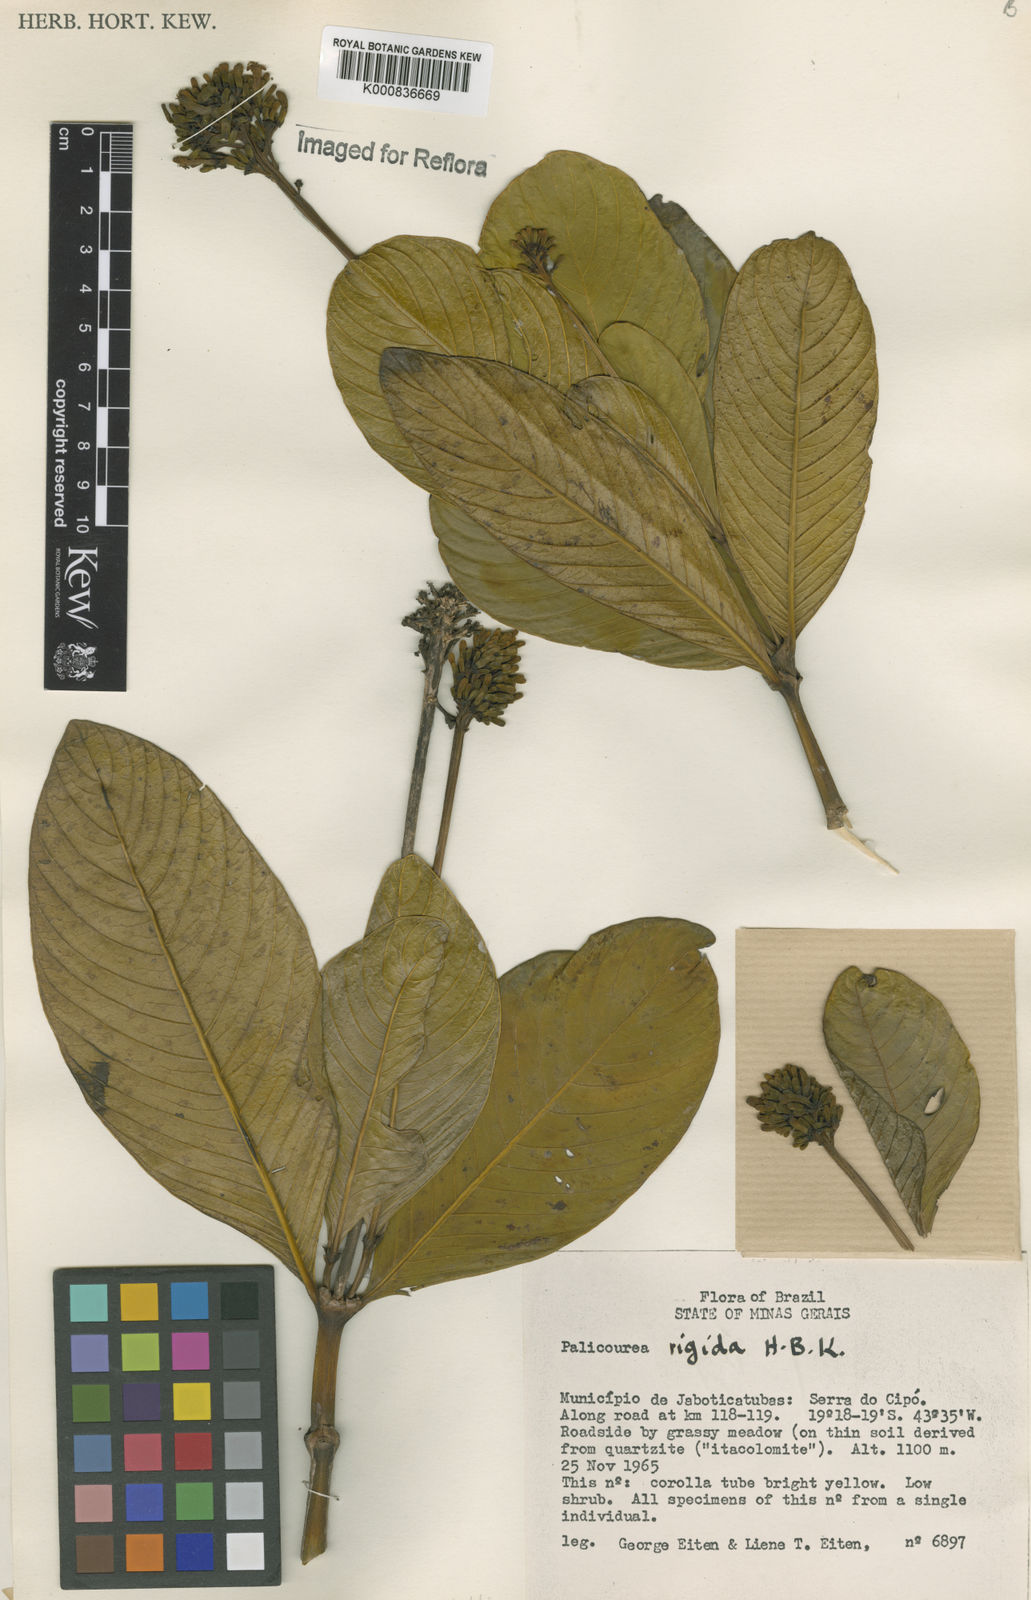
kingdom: Plantae
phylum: Tracheophyta
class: Magnoliopsida
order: Gentianales
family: Rubiaceae
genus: Palicourea
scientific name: Palicourea rigida
